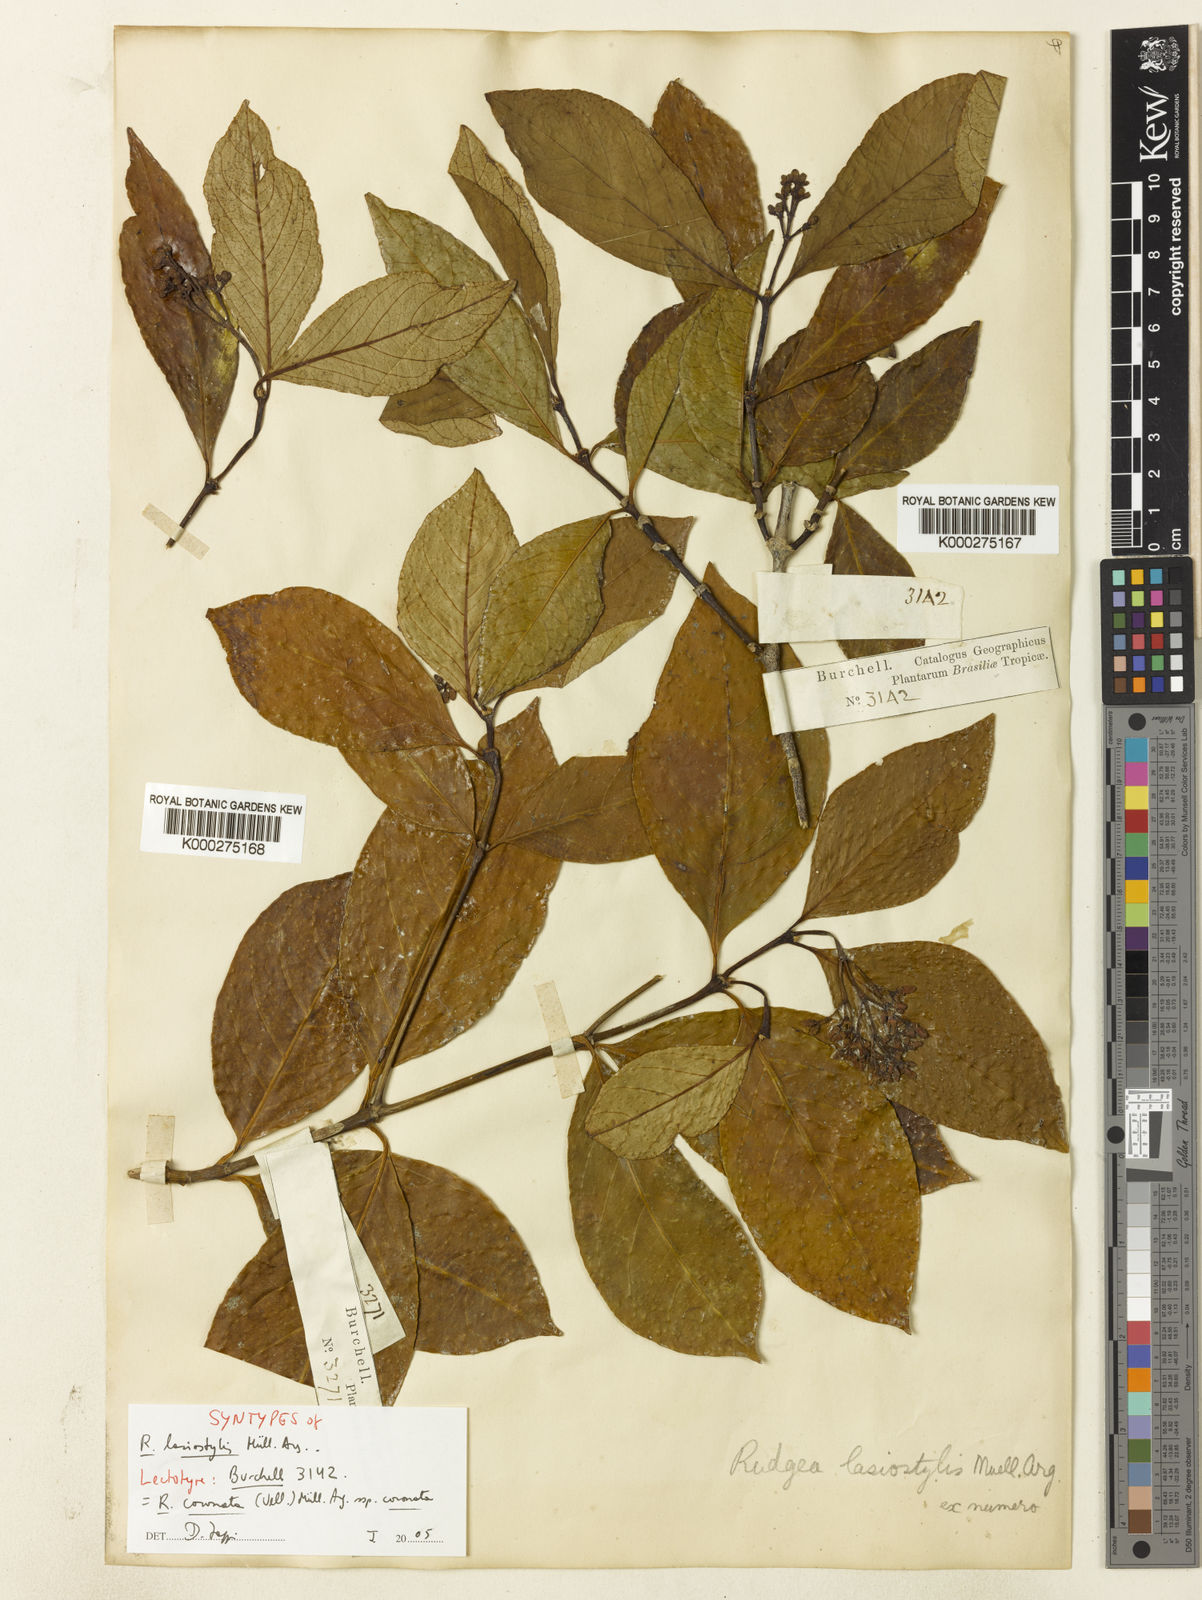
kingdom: Plantae
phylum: Tracheophyta
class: Magnoliopsida
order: Gentianales
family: Rubiaceae
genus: Rudgea
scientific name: Rudgea
